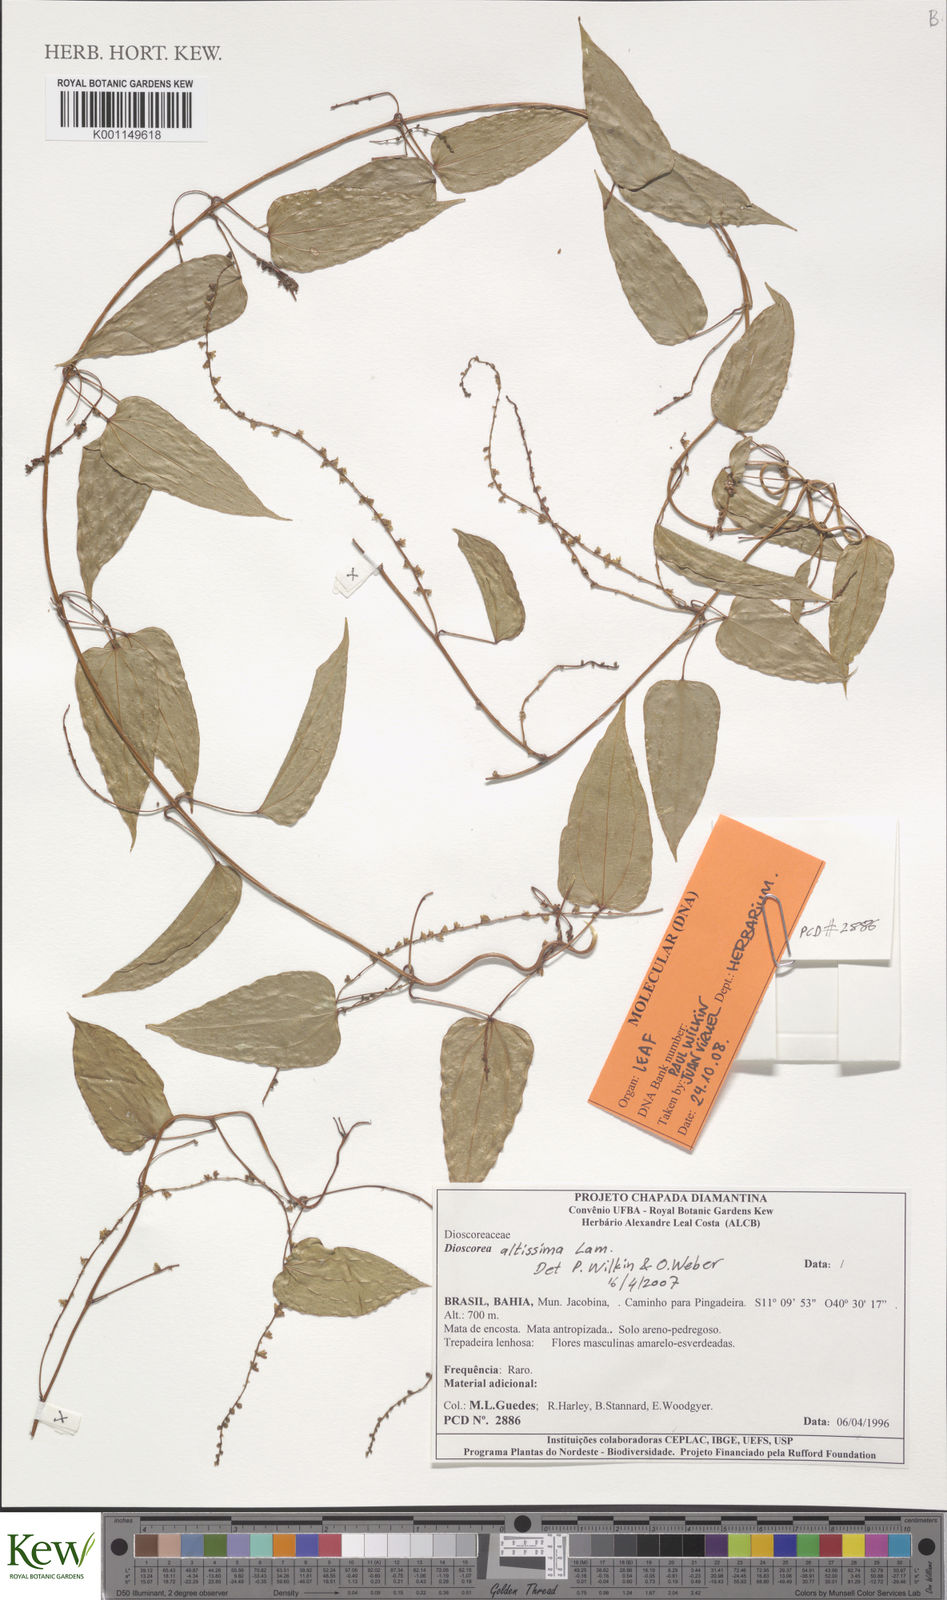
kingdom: Plantae
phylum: Tracheophyta
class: Liliopsida
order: Dioscoreales
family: Dioscoreaceae
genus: Dioscorea
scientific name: Dioscorea chondrocarpa
